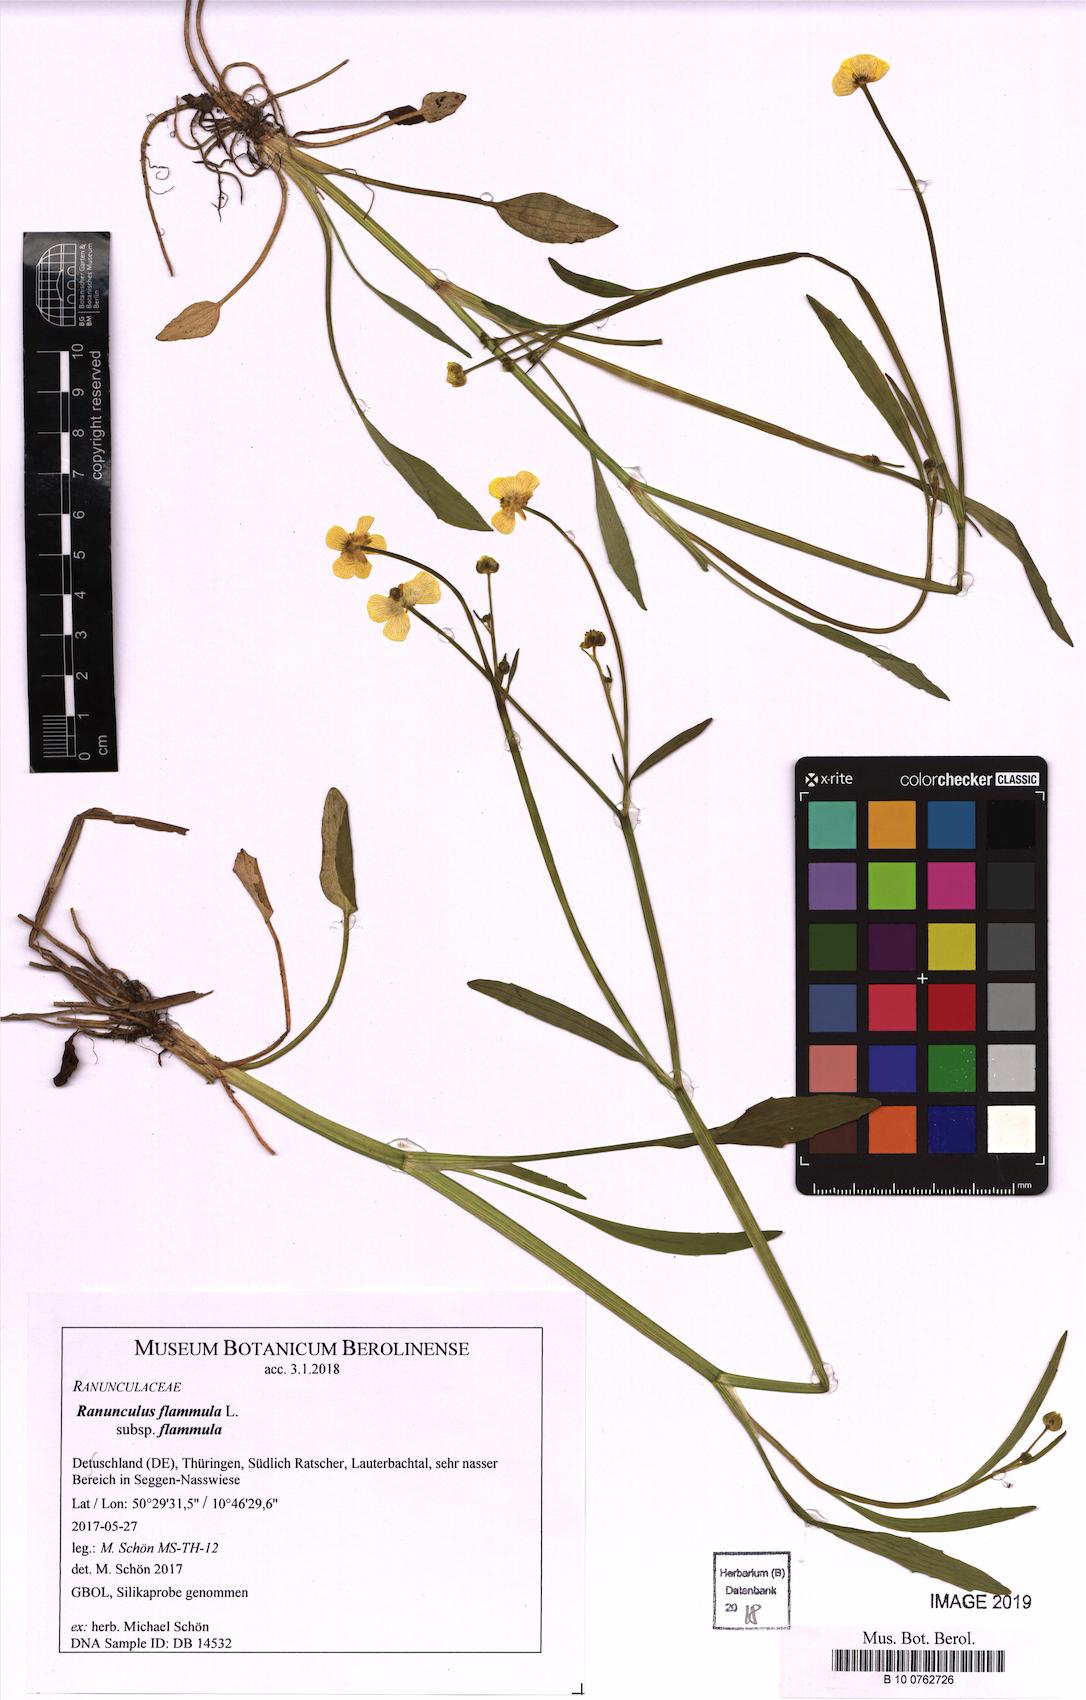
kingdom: Plantae
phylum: Tracheophyta
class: Magnoliopsida
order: Ranunculales
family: Ranunculaceae
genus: Ranunculus
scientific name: Ranunculus flammula
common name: Lesser spearwort
